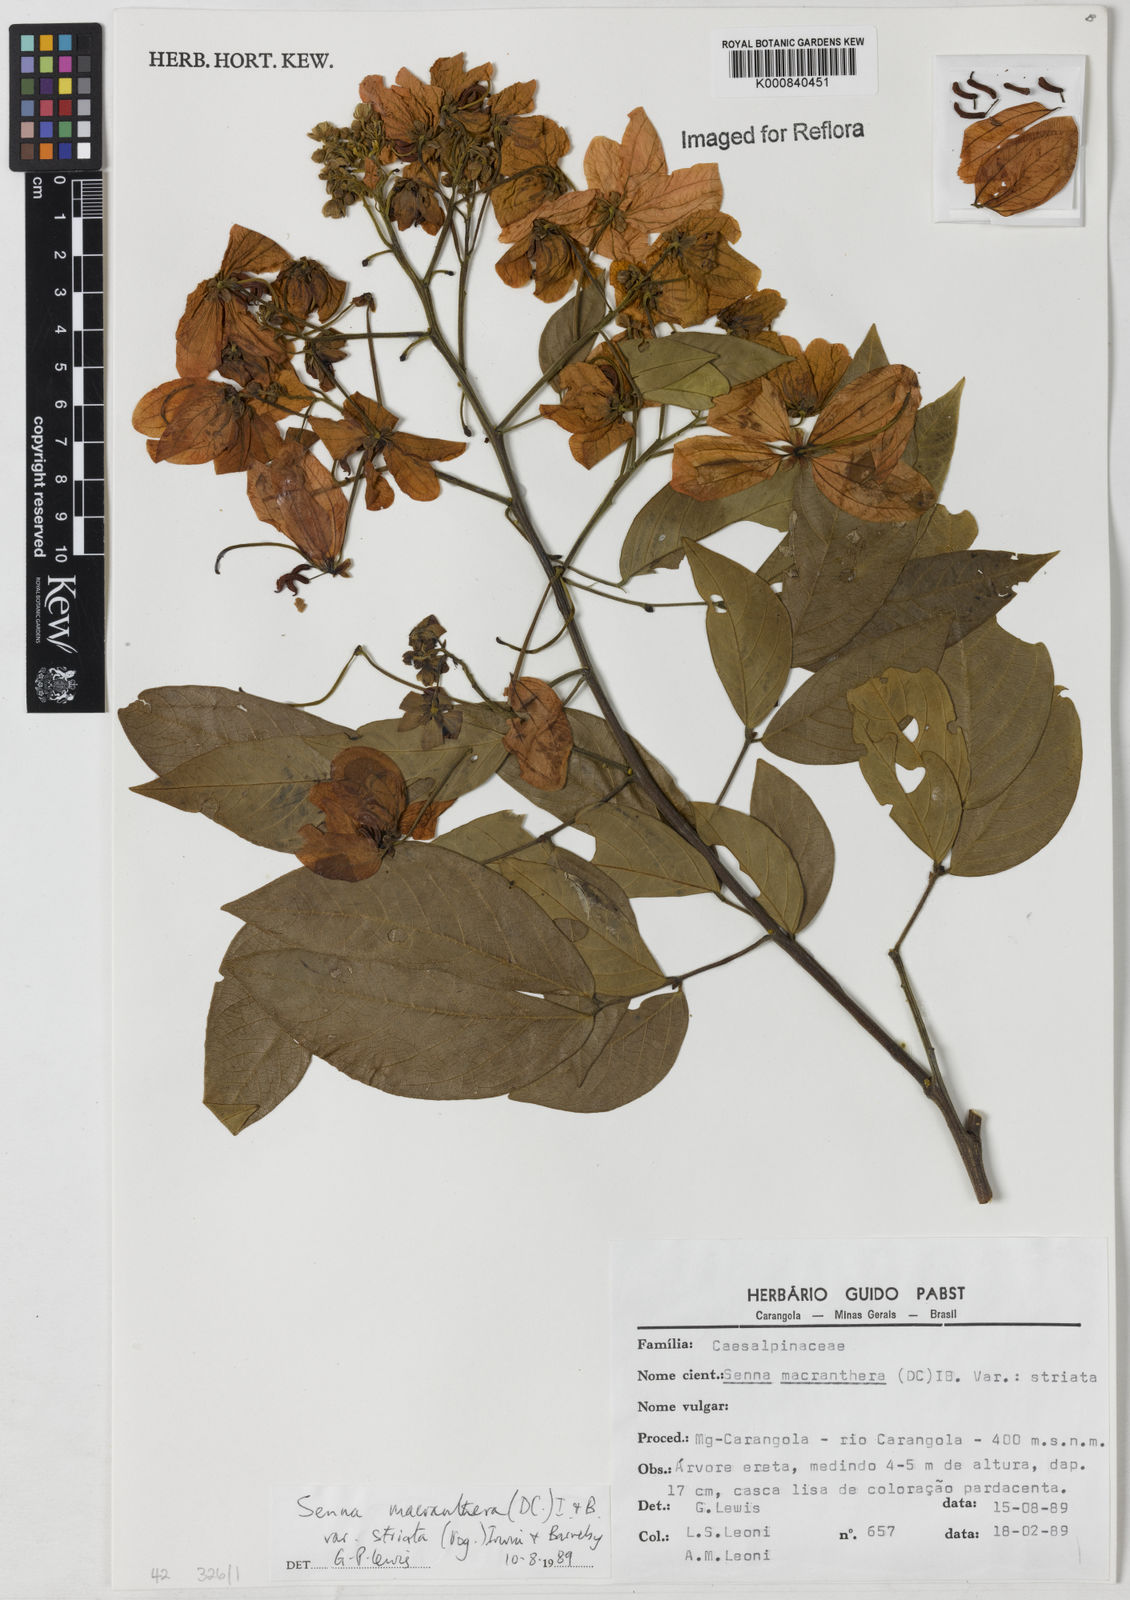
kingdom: Plantae
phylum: Tracheophyta
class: Magnoliopsida
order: Fabales
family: Fabaceae
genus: Senna
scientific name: Senna macranthera
